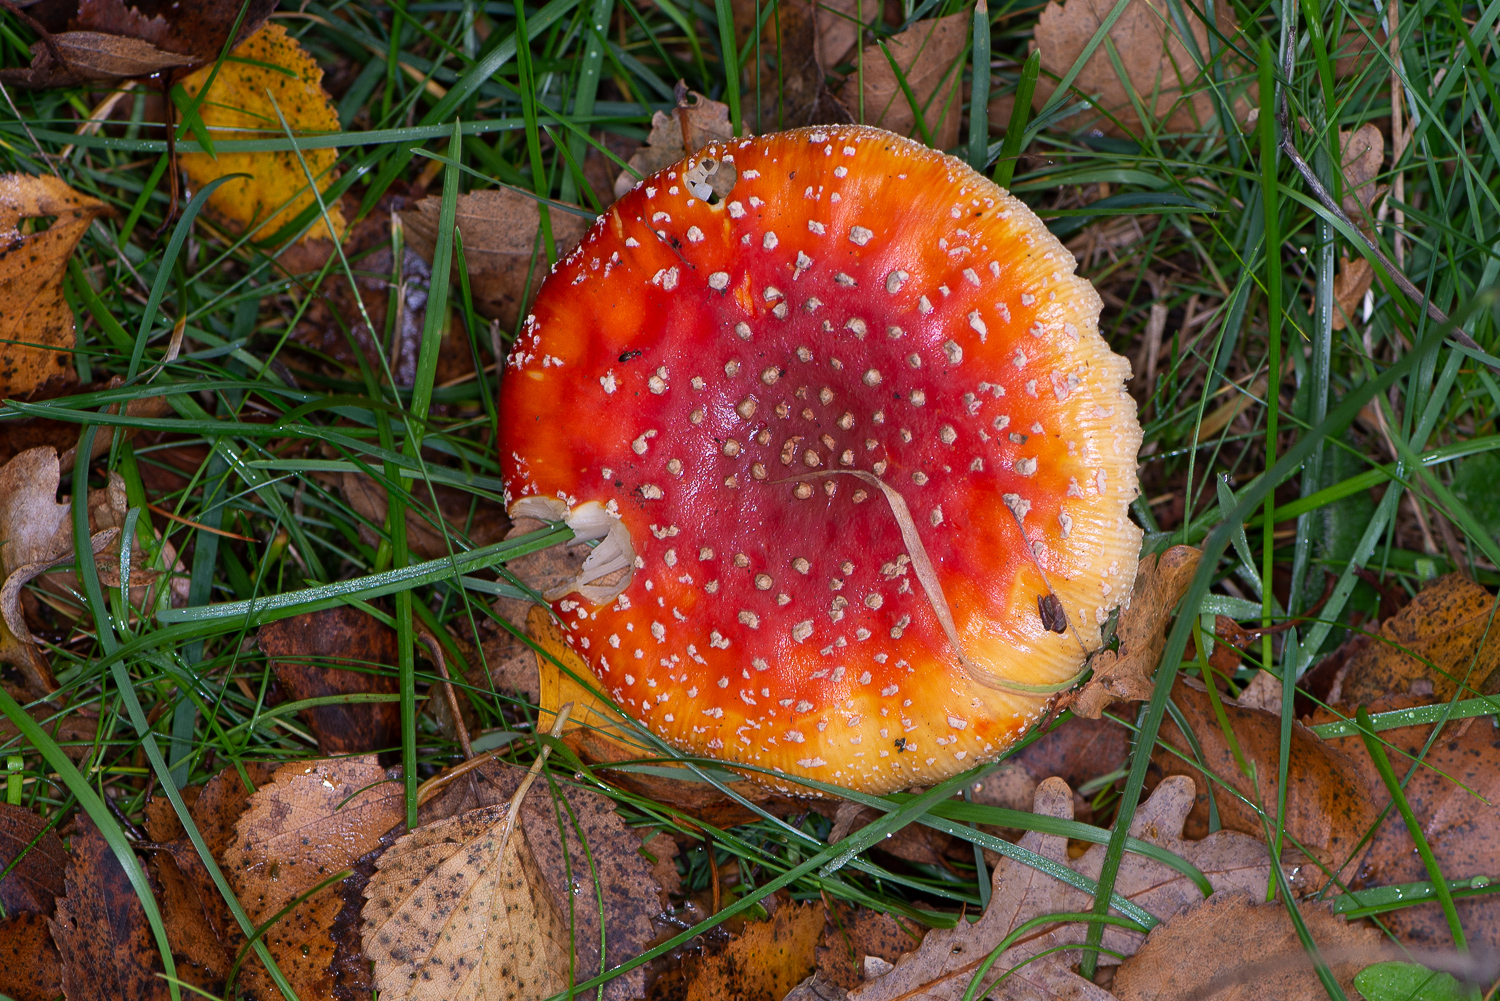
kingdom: Fungi
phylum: Basidiomycota
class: Agaricomycetes
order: Agaricales
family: Amanitaceae
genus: Amanita
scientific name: Amanita muscaria
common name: rød fluesvamp
